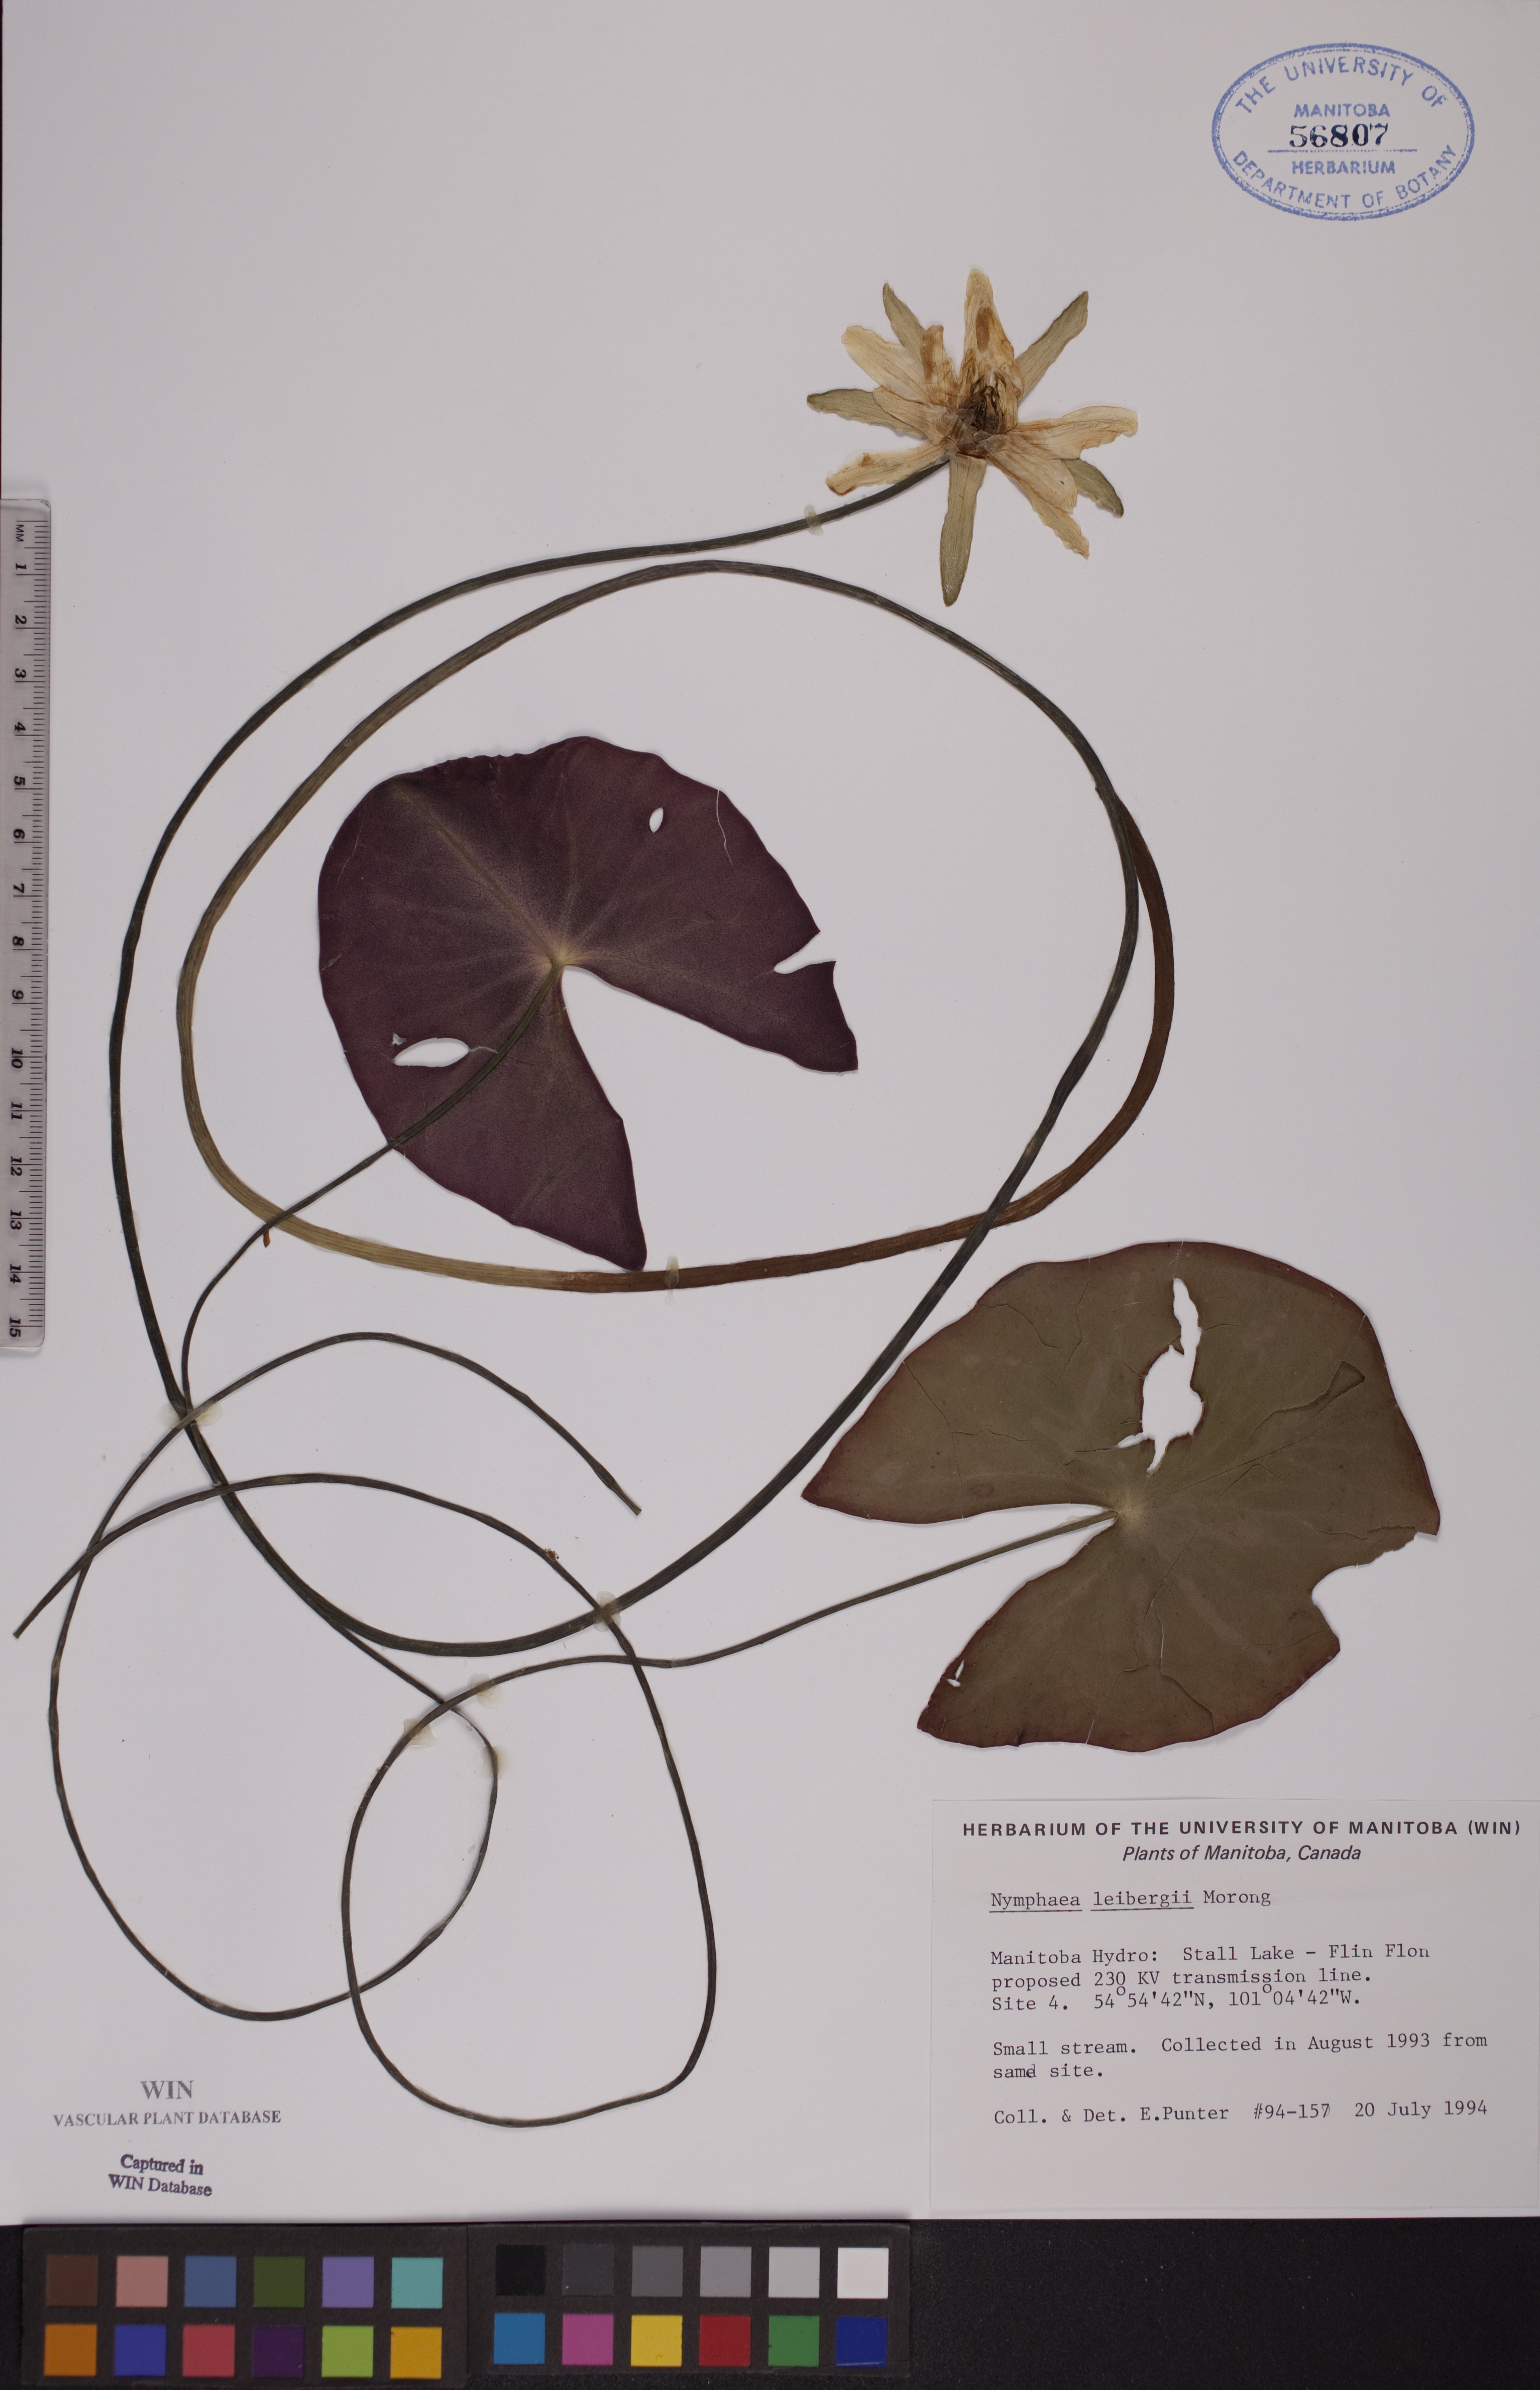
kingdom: Plantae
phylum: Tracheophyta
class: Magnoliopsida
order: Nymphaeales
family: Nymphaeaceae
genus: Nymphaea
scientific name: Nymphaea leibergii
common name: Dwarf water-lily
